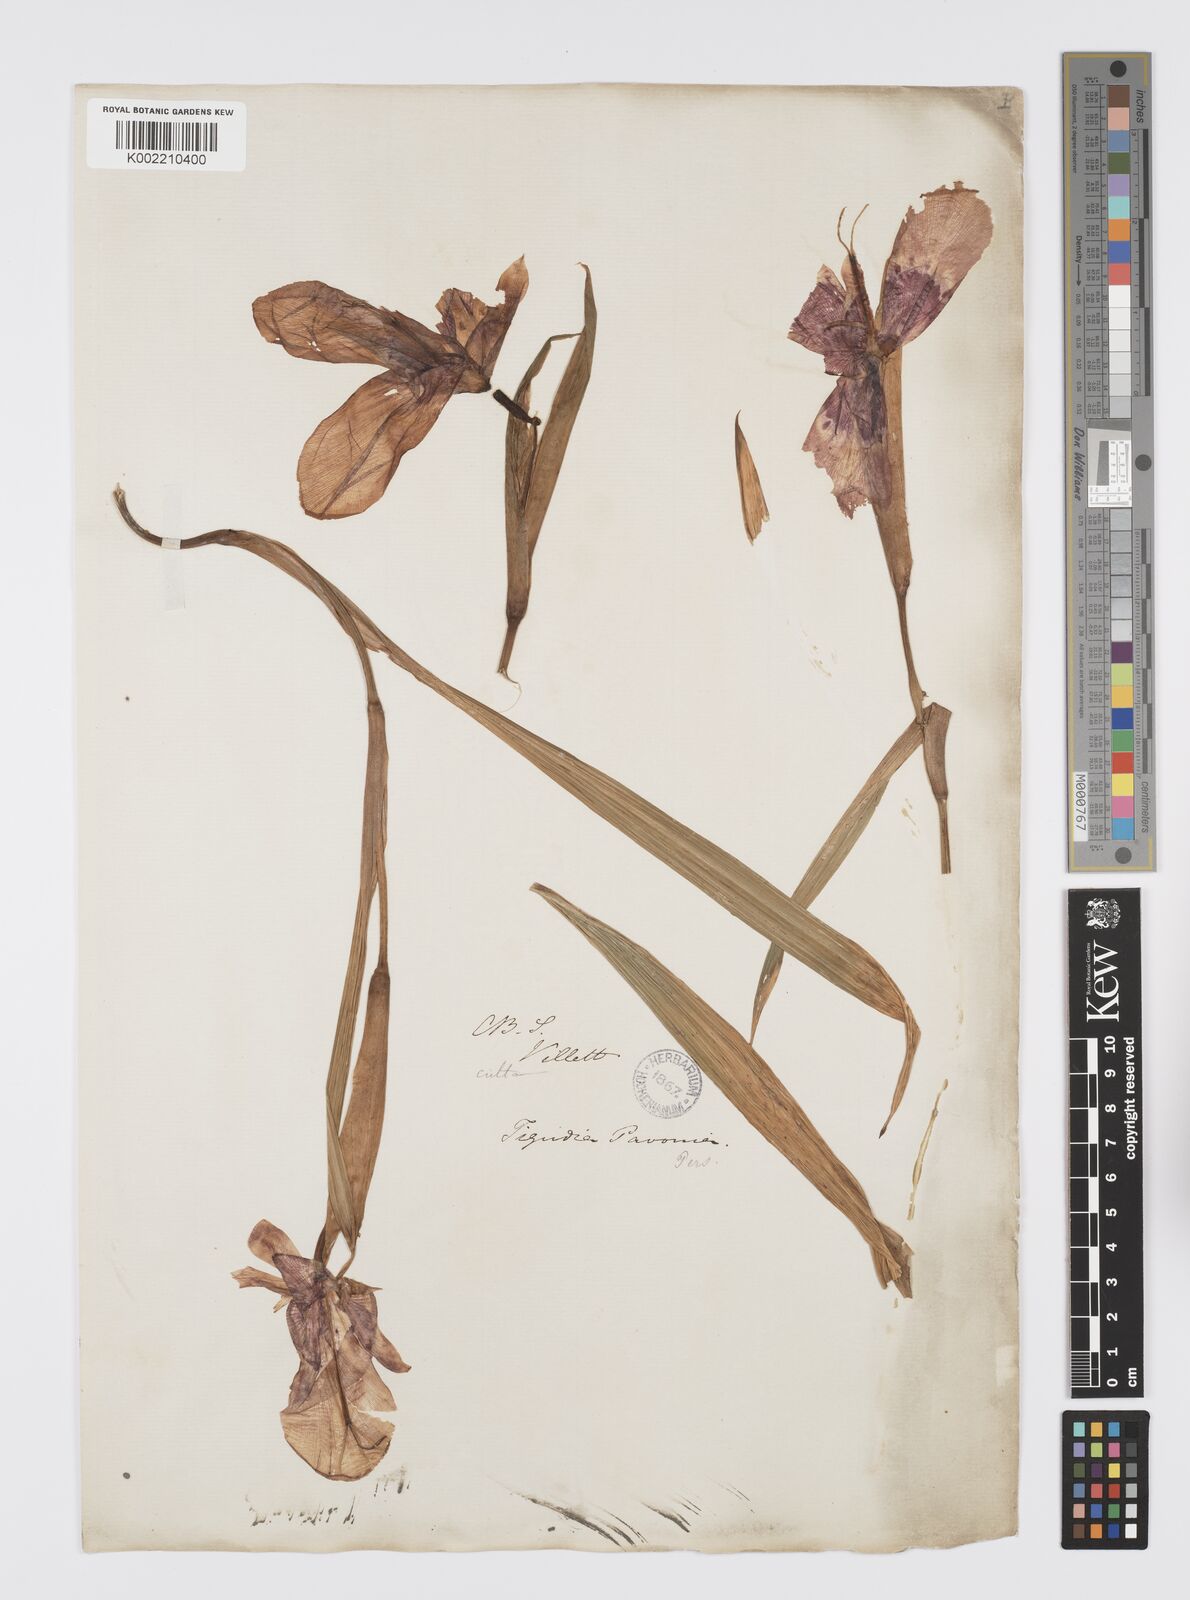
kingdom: Plantae
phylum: Tracheophyta
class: Liliopsida
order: Asparagales
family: Iridaceae
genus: Tigridia
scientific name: Tigridia pavonia
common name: Peacock-flower
